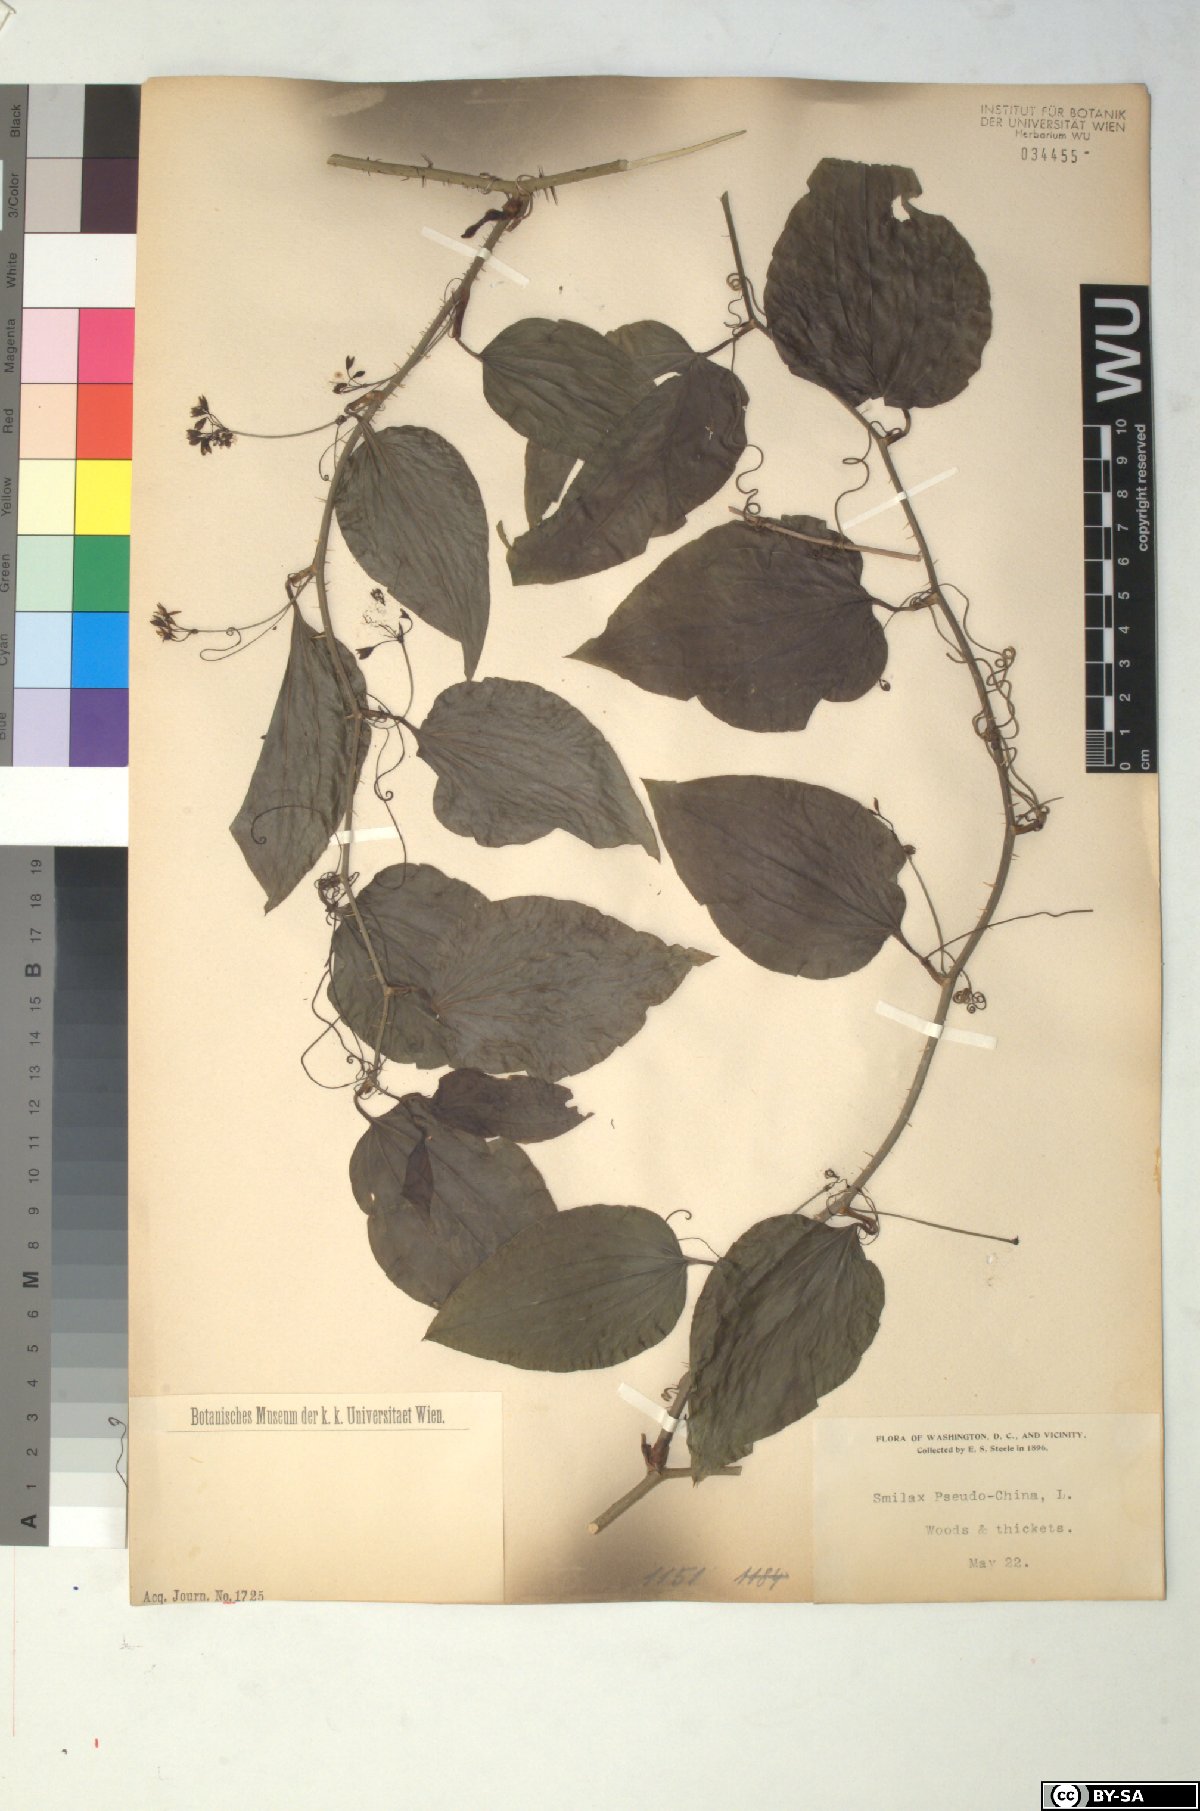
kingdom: Plantae
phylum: Tracheophyta
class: Liliopsida
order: Liliales
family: Smilacaceae
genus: Smilax
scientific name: Smilax domingensis
